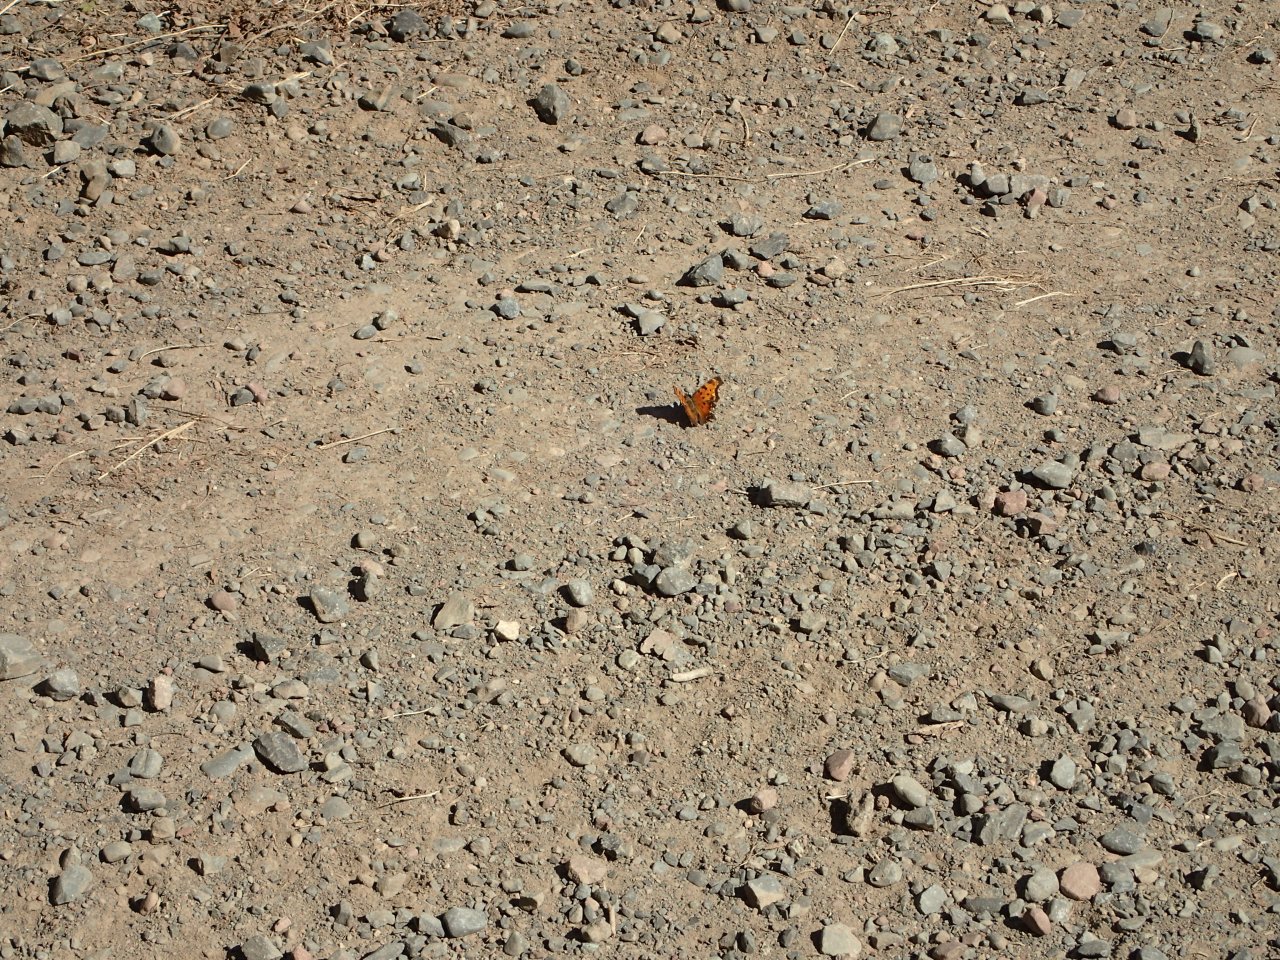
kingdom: Animalia
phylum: Arthropoda
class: Insecta
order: Lepidoptera
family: Nymphalidae
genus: Polygonia
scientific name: Polygonia progne
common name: Gray Comma
